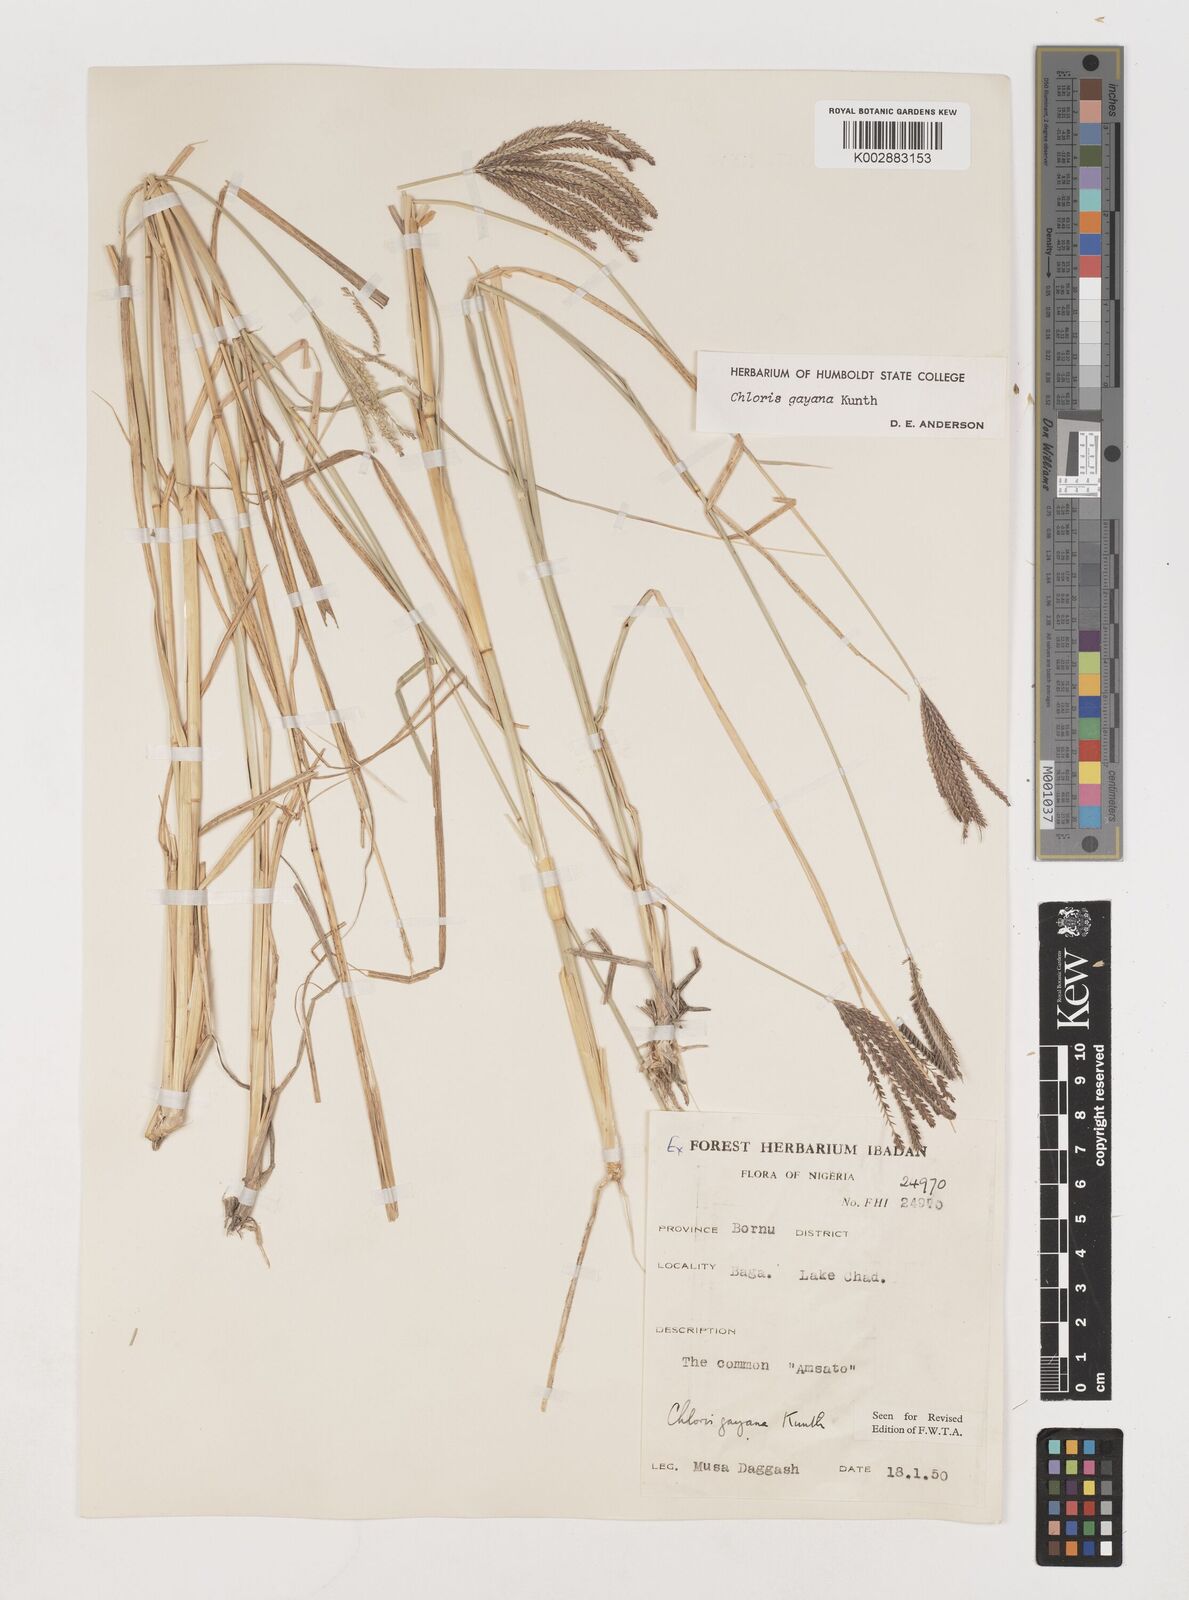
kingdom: Plantae
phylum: Tracheophyta
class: Liliopsida
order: Poales
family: Poaceae
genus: Chloris
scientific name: Chloris gayana
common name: Rhodes grass
